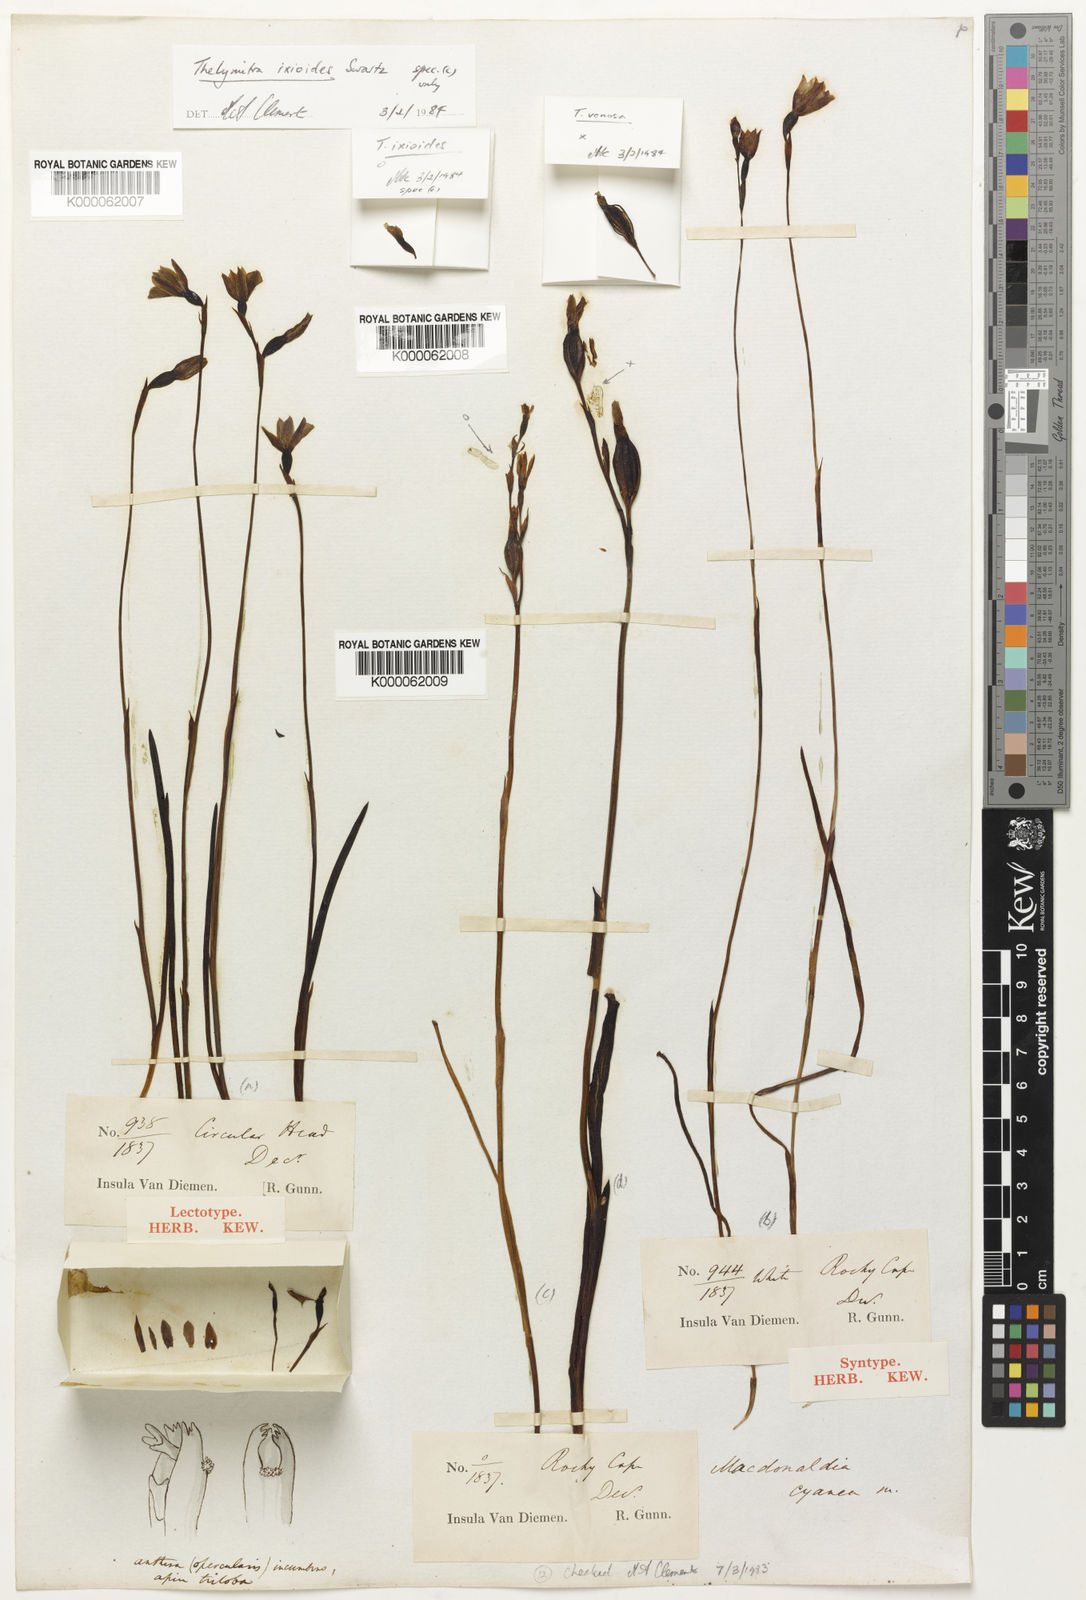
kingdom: Plantae
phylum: Tracheophyta
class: Liliopsida
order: Asparagales
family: Orchidaceae
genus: Thelymitra
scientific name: Thelymitra
